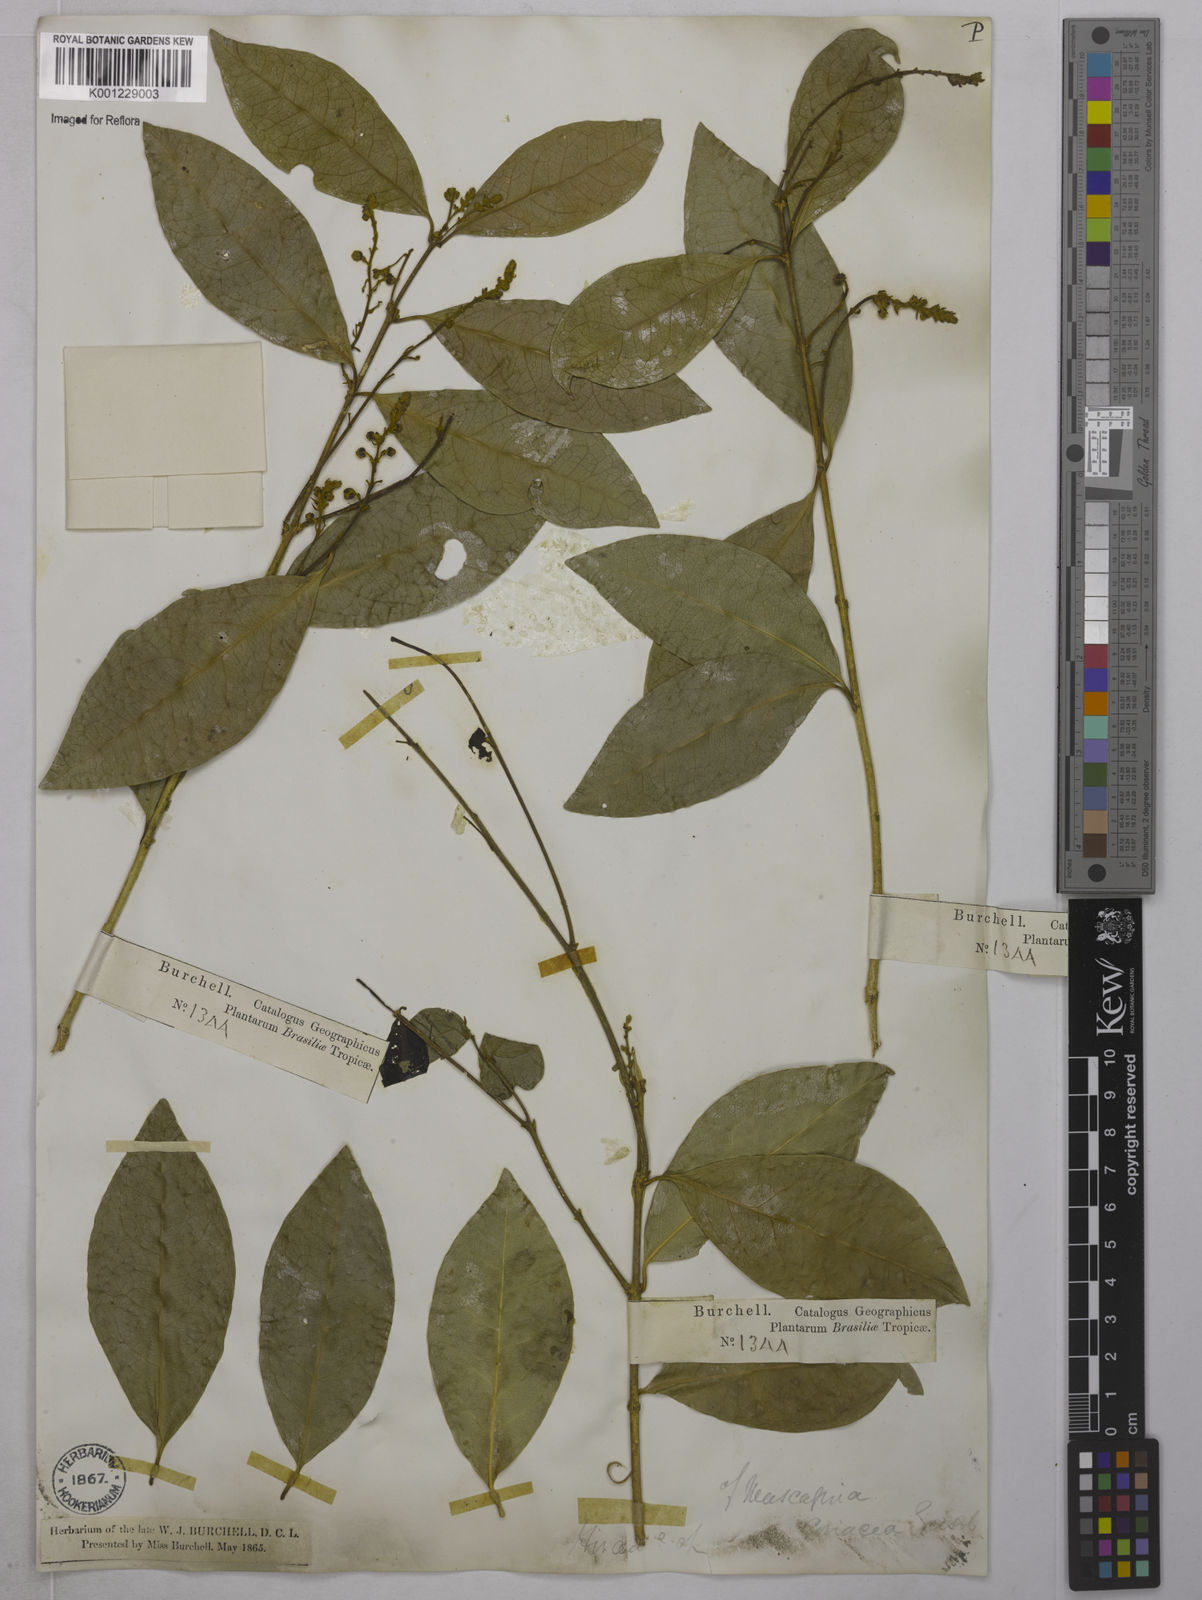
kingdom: Plantae
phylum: Tracheophyta
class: Magnoliopsida
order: Malpighiales
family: Malpighiaceae
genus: Amorimia
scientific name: Amorimia rigida
